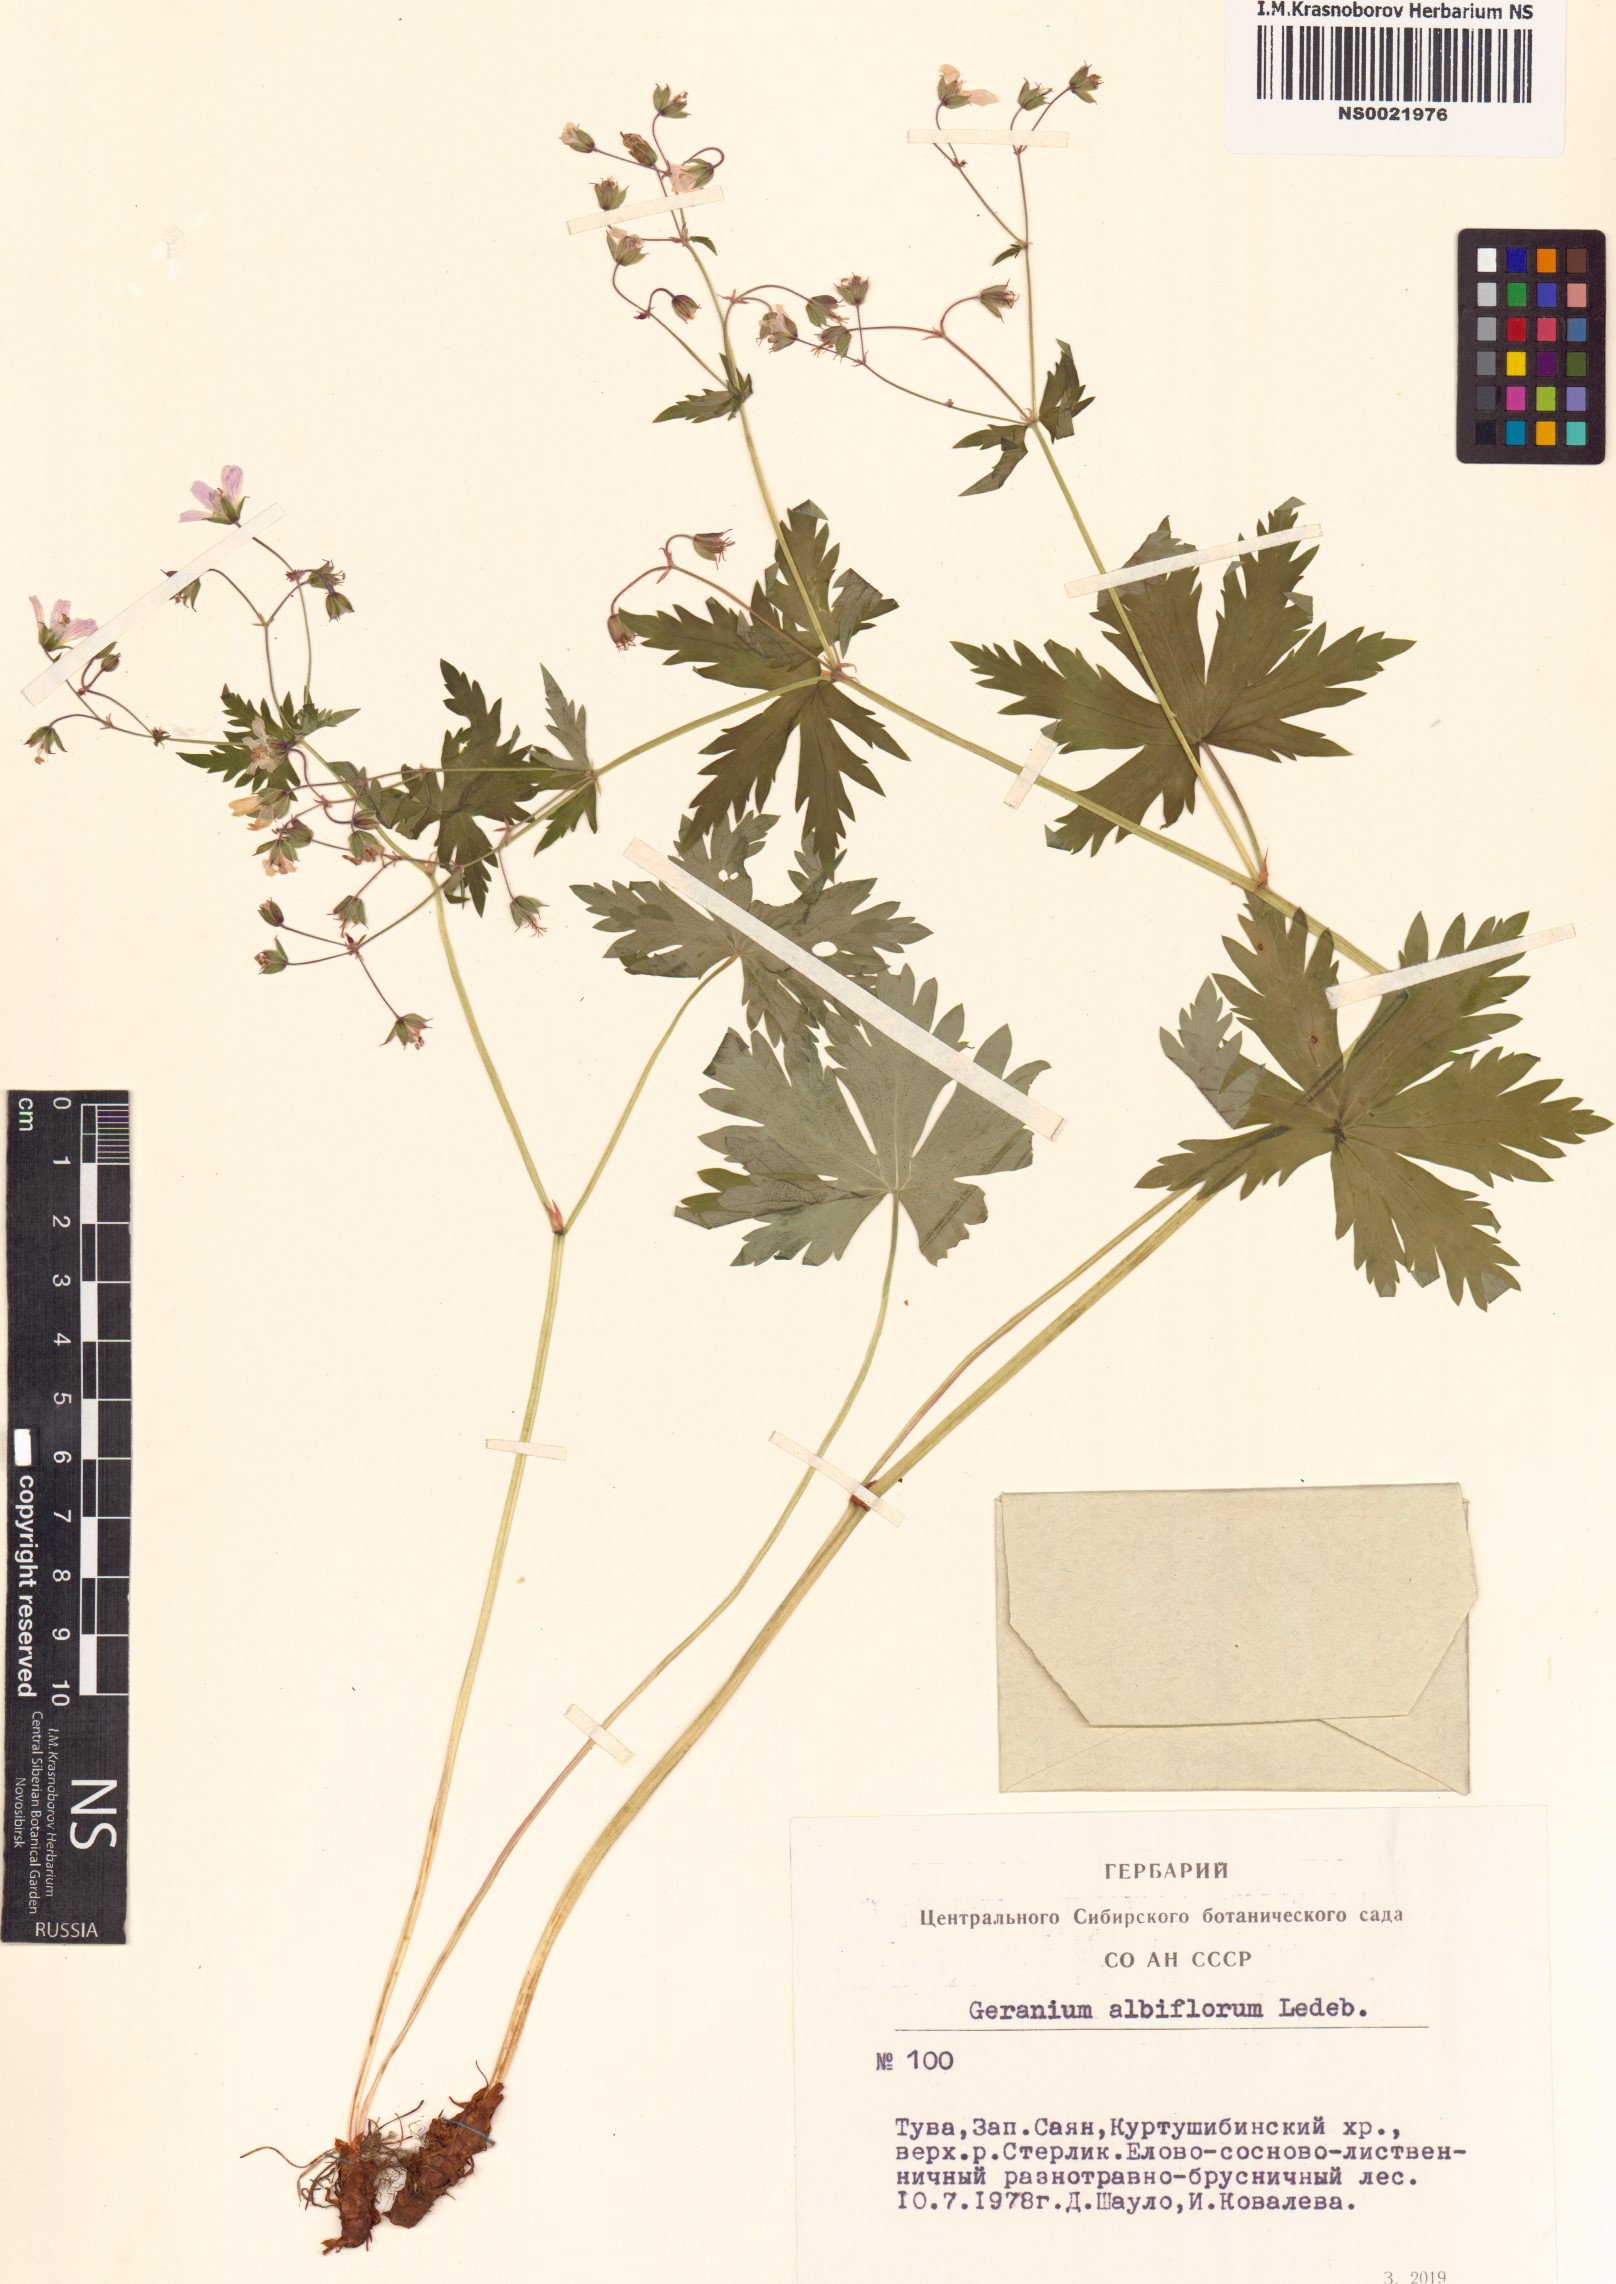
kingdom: Plantae
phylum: Tracheophyta
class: Magnoliopsida
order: Geraniales
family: Geraniaceae
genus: Geranium
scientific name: Geranium albiflorum
